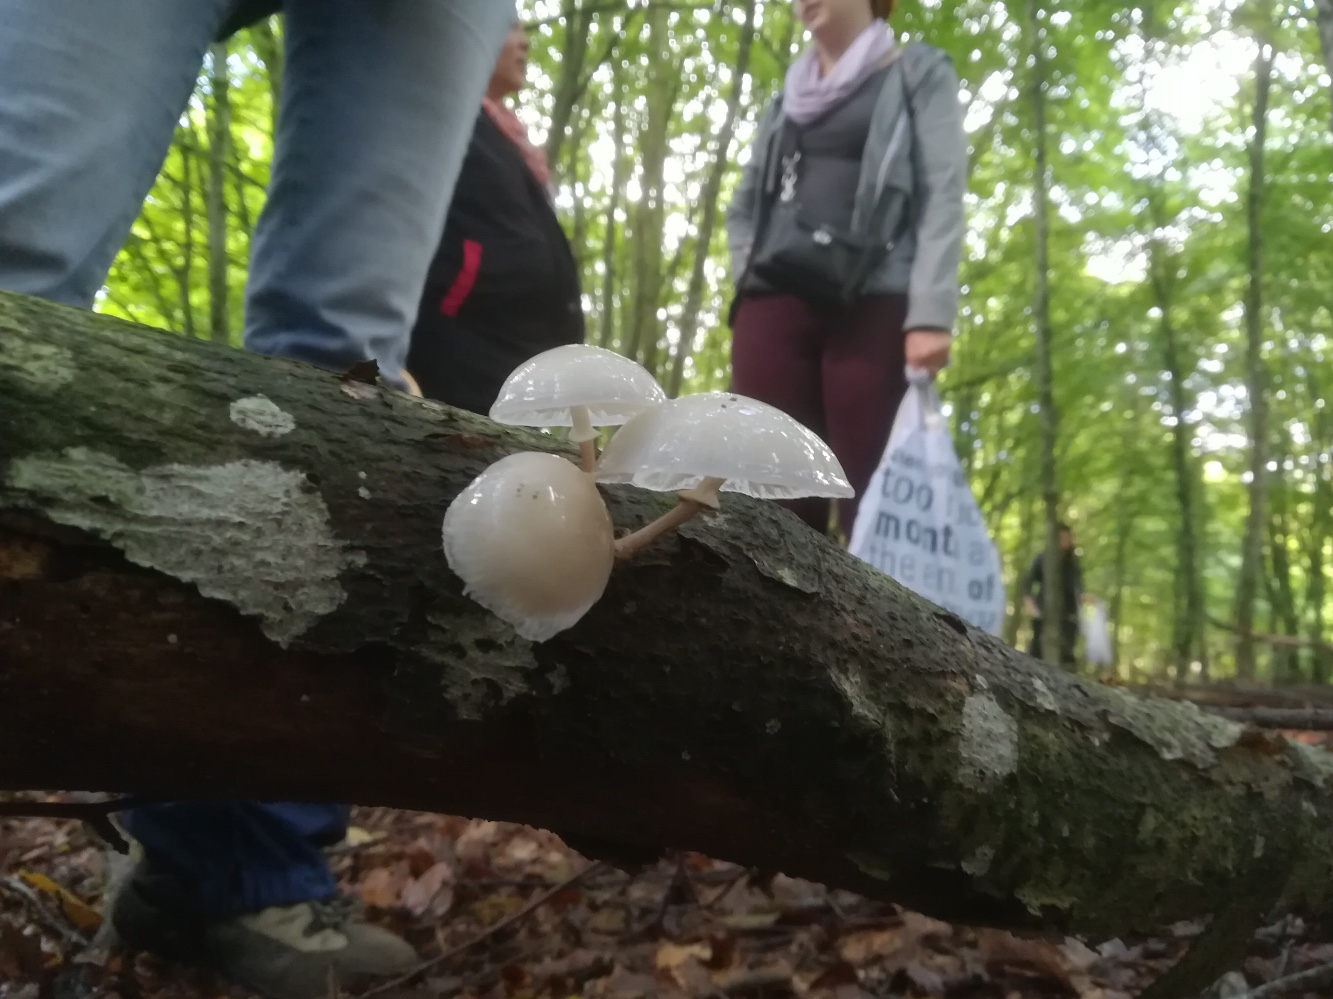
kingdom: Fungi
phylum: Basidiomycota
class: Agaricomycetes
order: Agaricales
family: Physalacriaceae
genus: Mucidula
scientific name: Mucidula mucida
